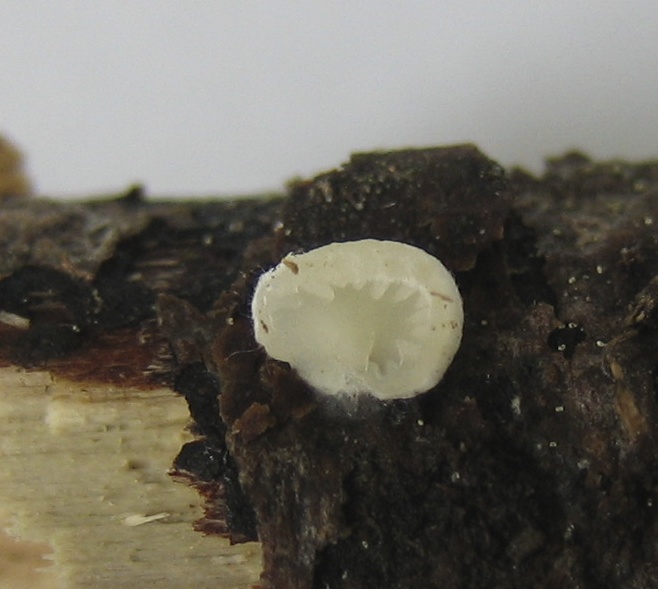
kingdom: Fungi
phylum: Basidiomycota
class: Agaricomycetes
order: Agaricales
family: Entolomataceae
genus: Clitopilus
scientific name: Clitopilus hobsonii
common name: Miller's oysterling
